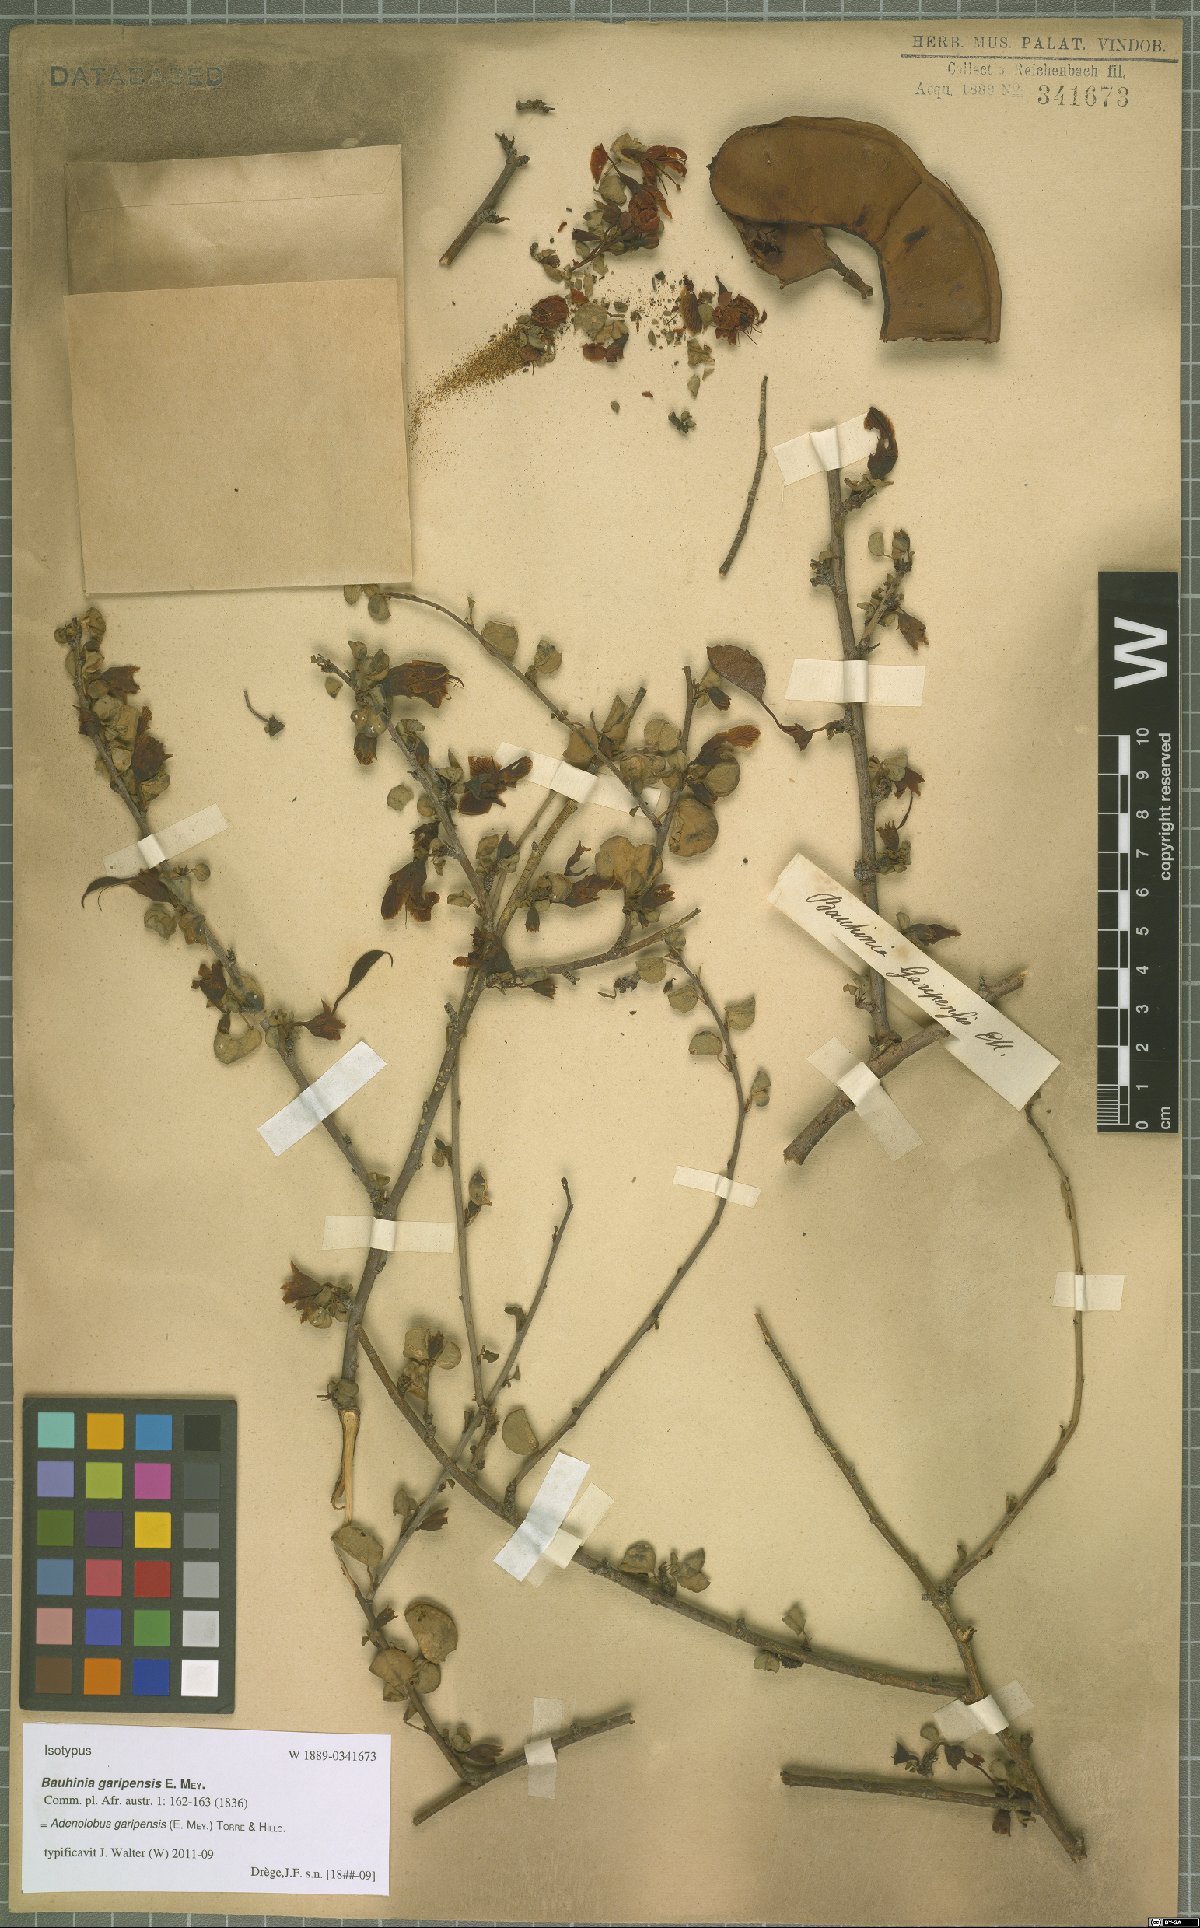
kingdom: Plantae
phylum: Tracheophyta
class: Magnoliopsida
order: Fabales
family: Fabaceae
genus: Adenolobus
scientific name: Adenolobus garipensis
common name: Butterfly-leaf
